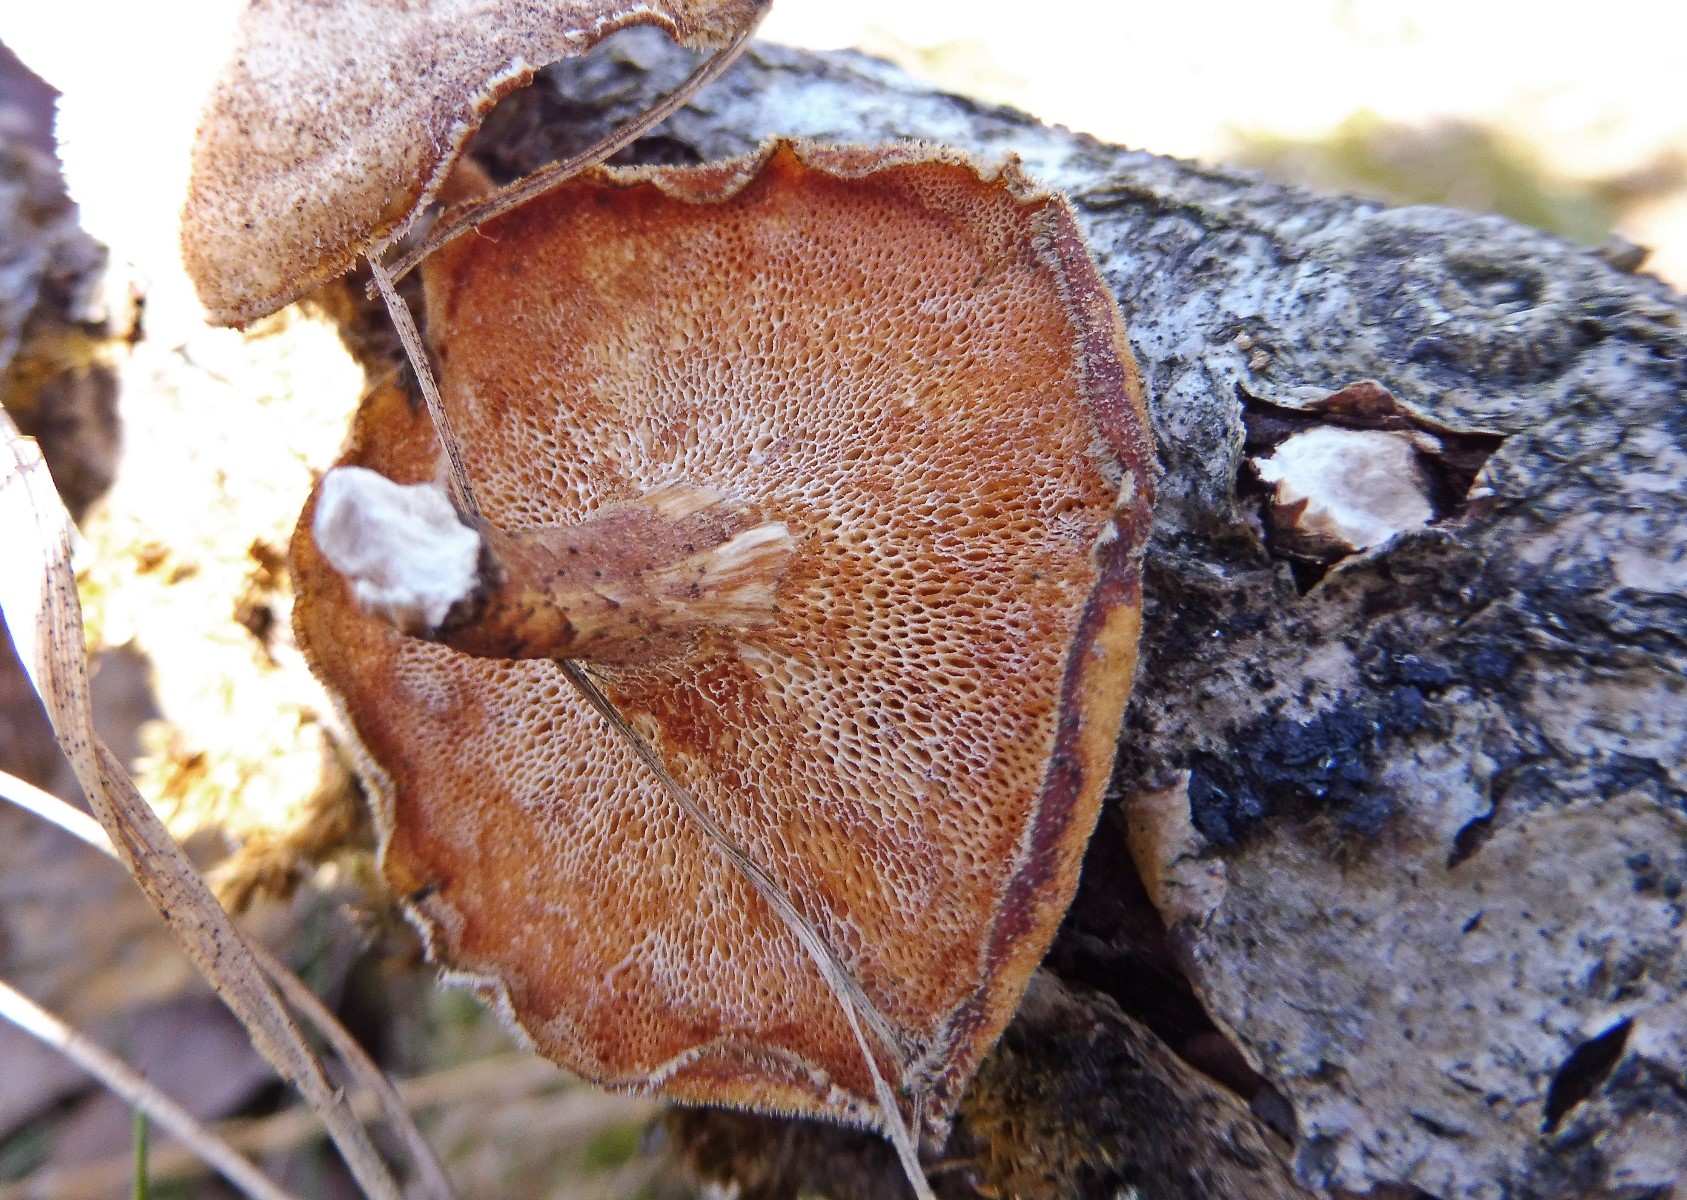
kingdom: Fungi
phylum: Basidiomycota
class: Agaricomycetes
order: Polyporales
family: Polyporaceae
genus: Lentinus
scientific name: Lentinus brumalis
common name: vinter-stilkporesvamp
